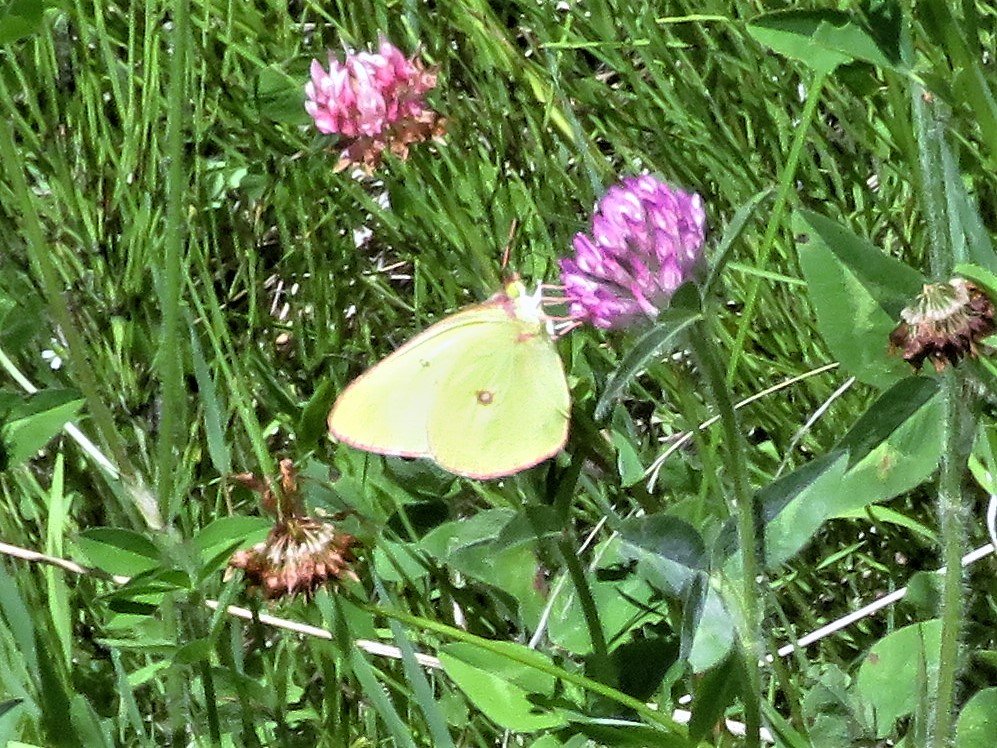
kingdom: Animalia
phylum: Arthropoda
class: Insecta
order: Lepidoptera
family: Pieridae
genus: Colias
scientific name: Colias interior
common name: Pink-edged Sulphur
